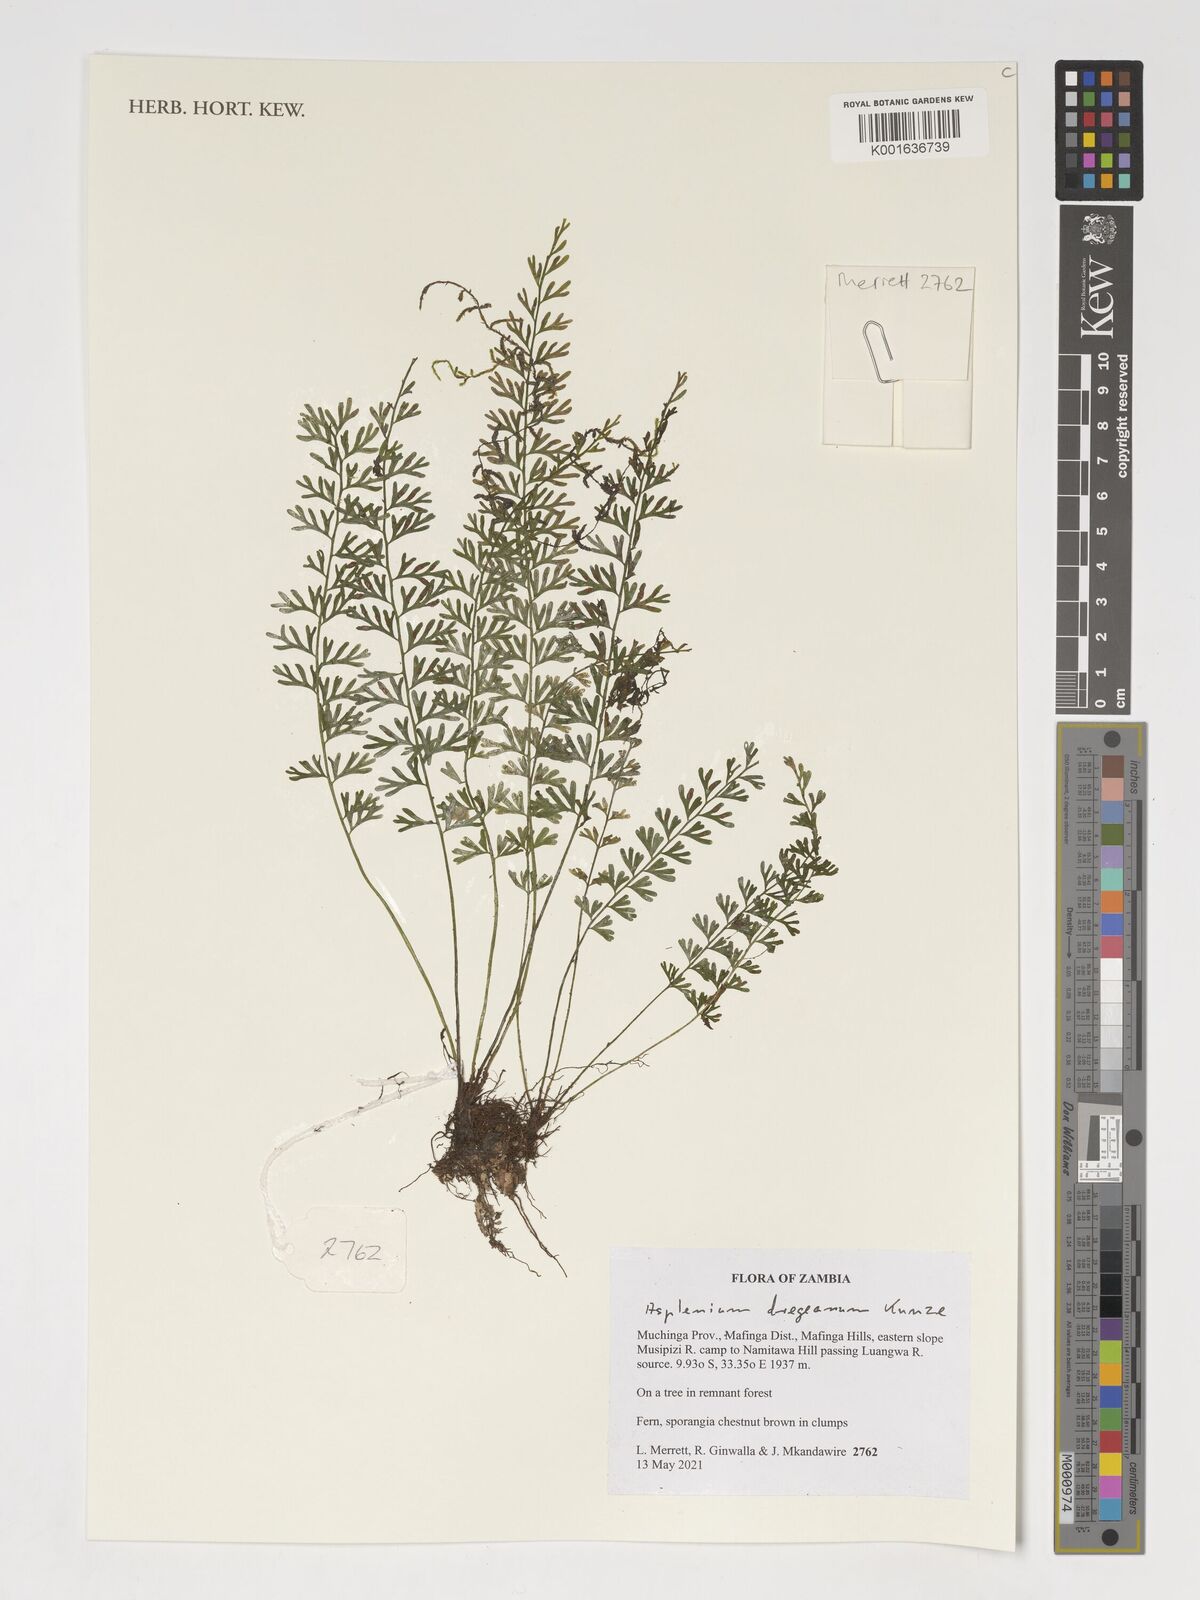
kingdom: Plantae
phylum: Tracheophyta
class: Polypodiopsida
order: Polypodiales
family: Aspleniaceae
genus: Asplenium
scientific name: Asplenium dregeanum
